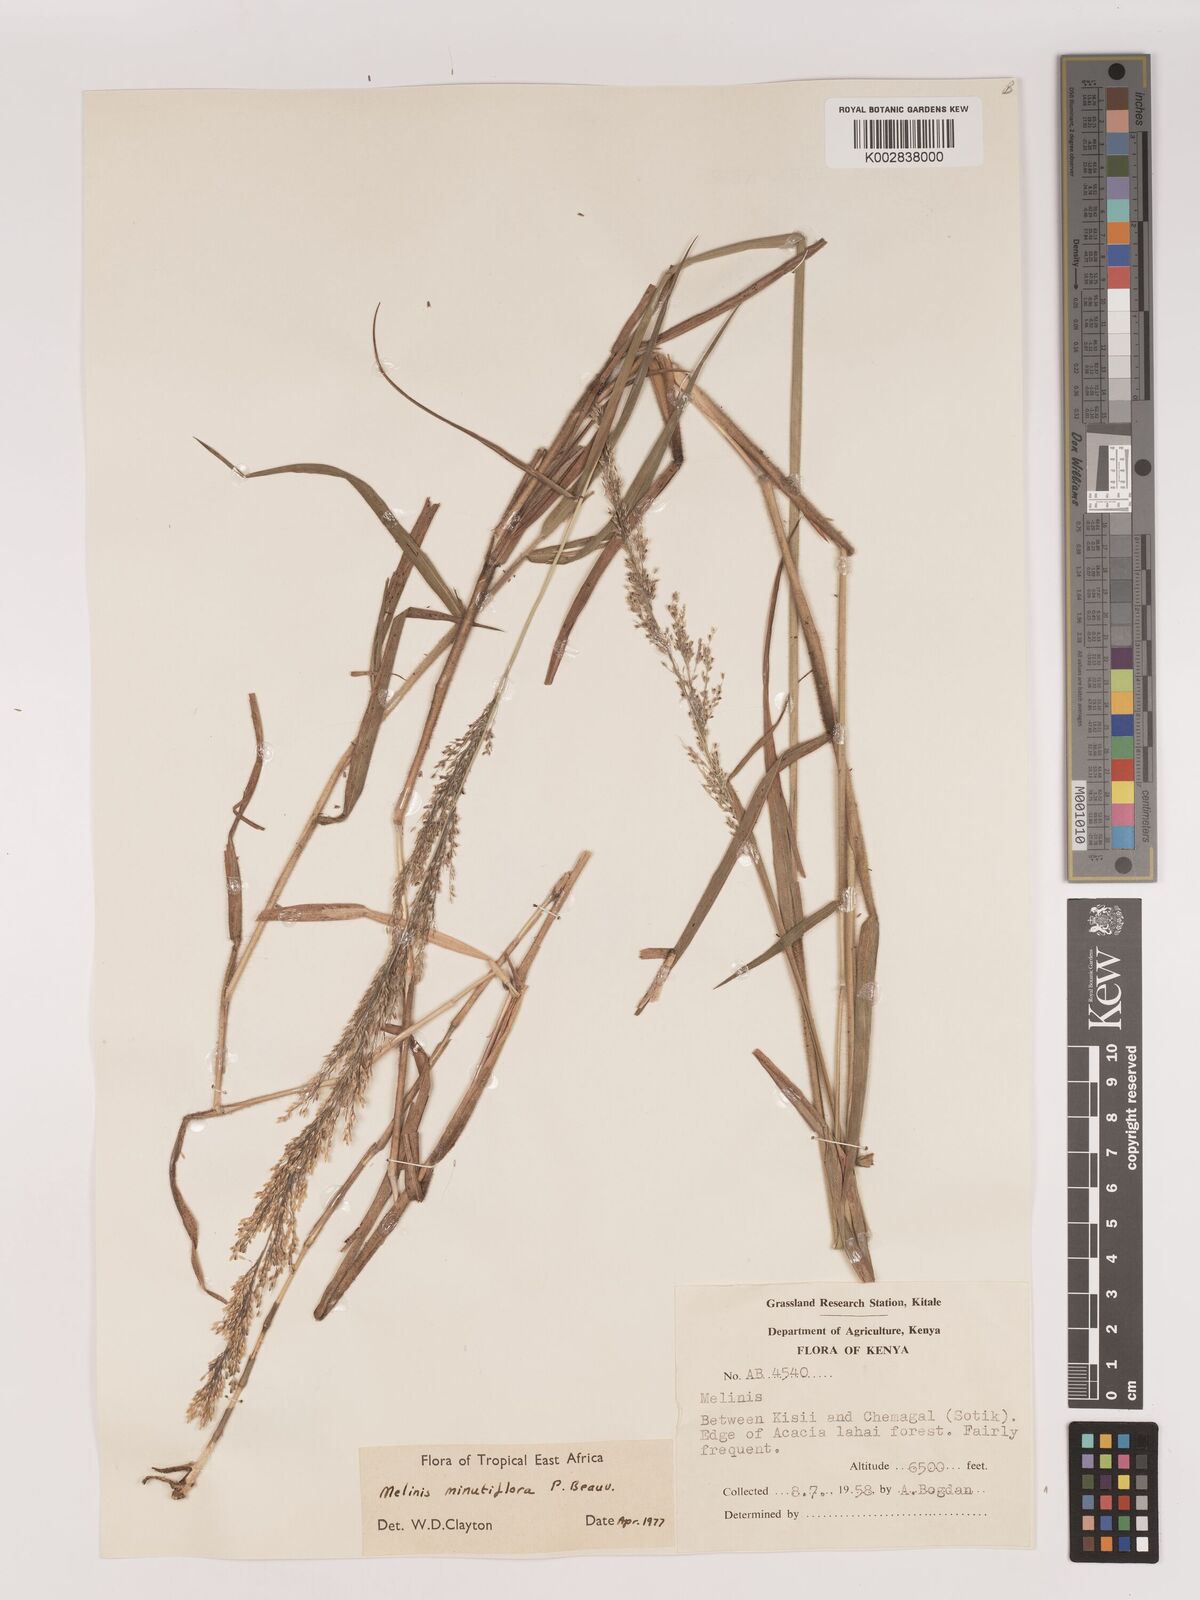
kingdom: Plantae
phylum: Tracheophyta
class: Liliopsida
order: Poales
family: Poaceae
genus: Melinis
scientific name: Melinis minutiflora
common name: Molassesgrass
